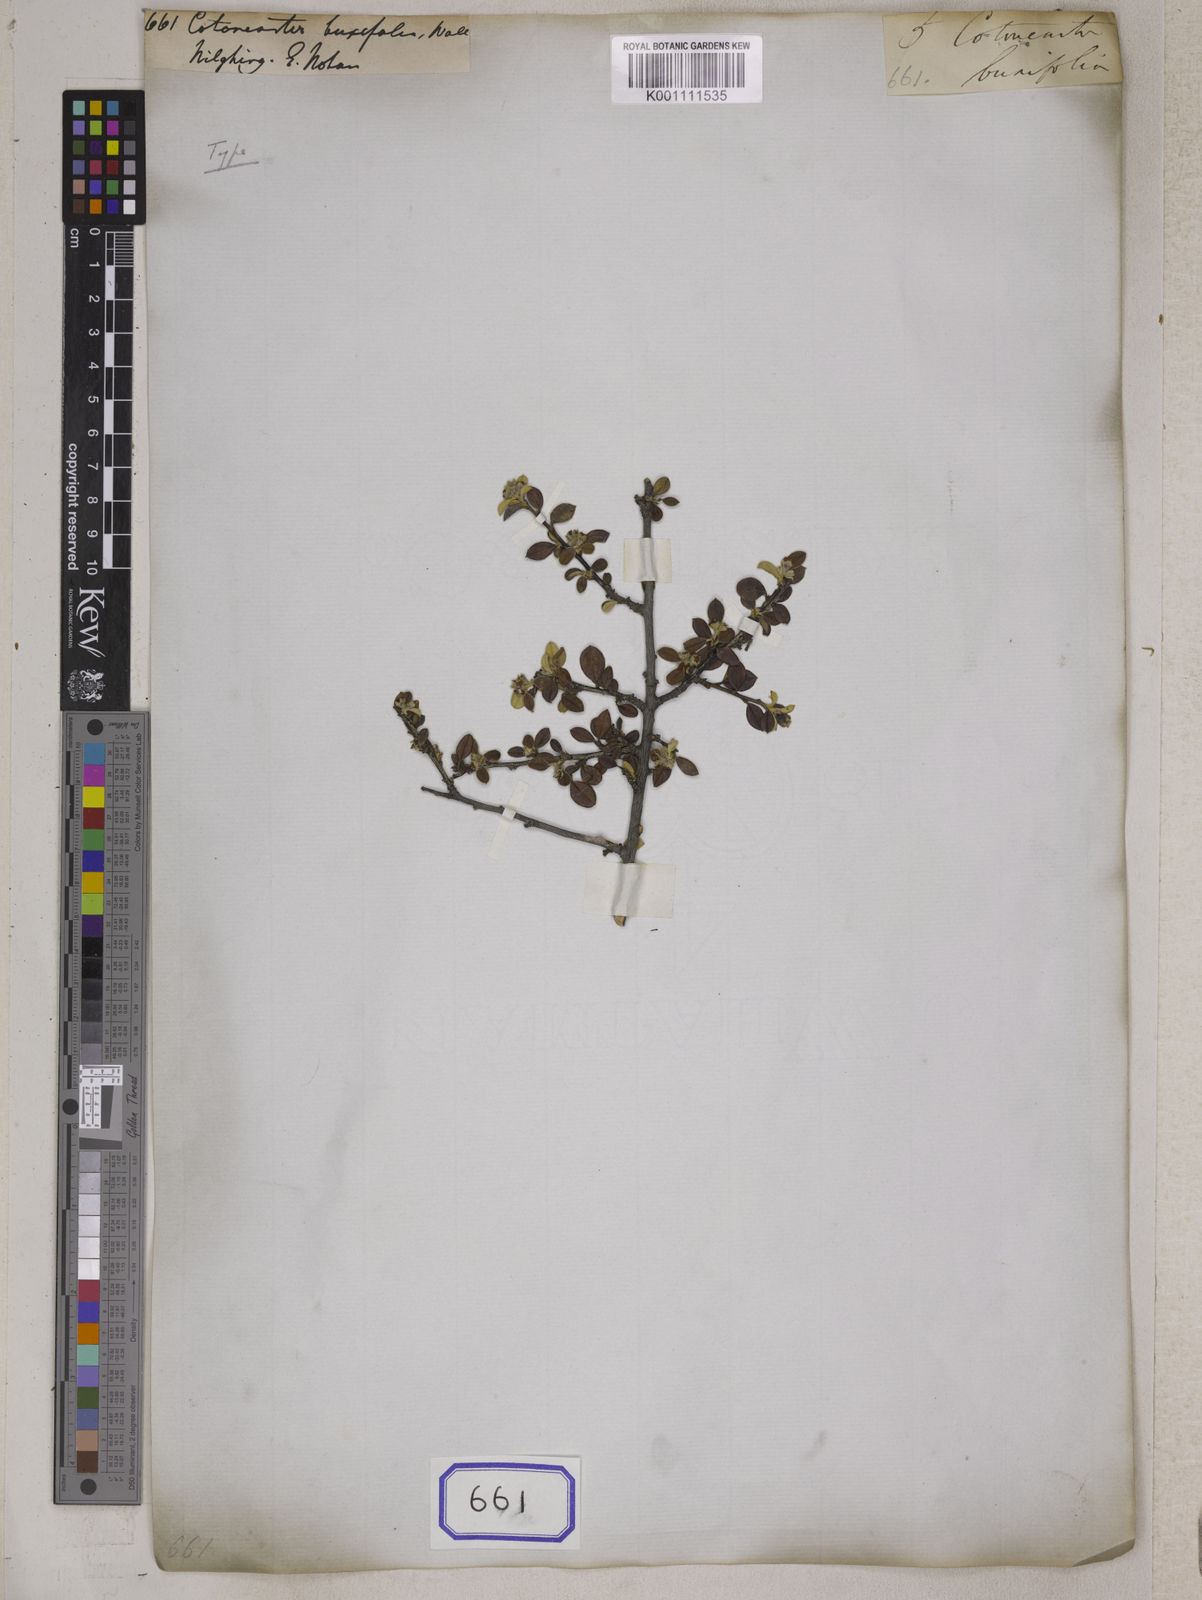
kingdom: Plantae
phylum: Tracheophyta
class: Magnoliopsida
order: Rosales
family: Rosaceae
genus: Cotoneaster
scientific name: Cotoneaster
